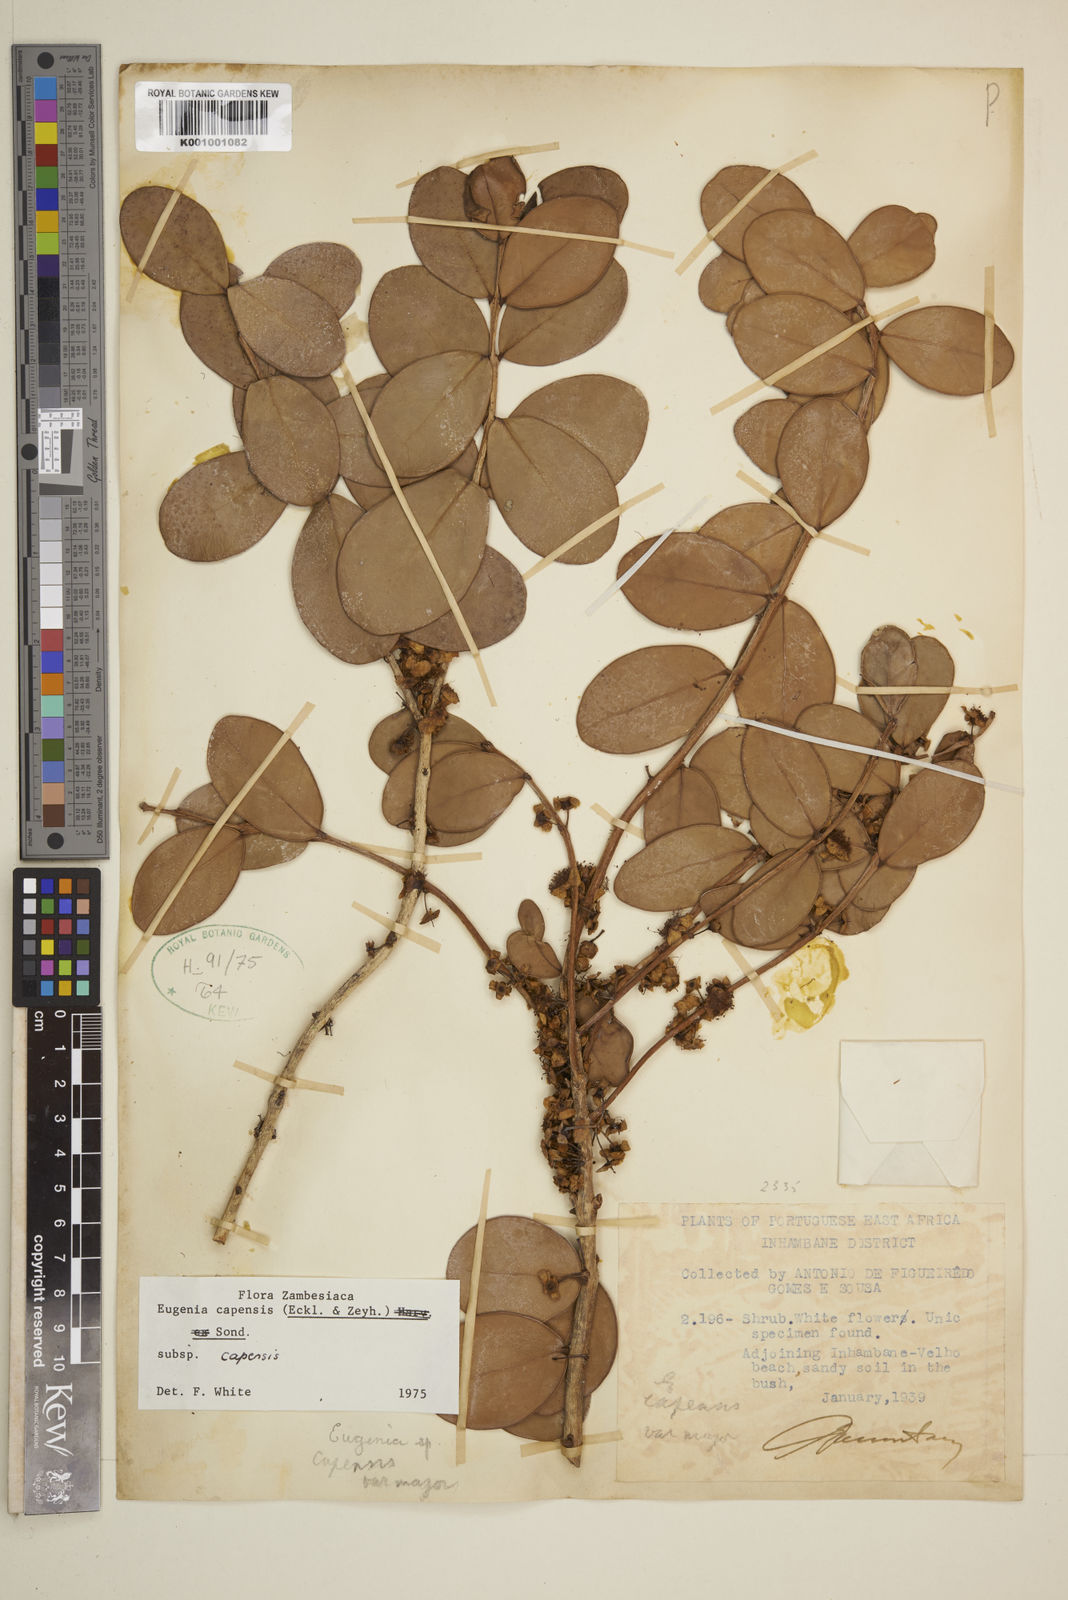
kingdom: Plantae
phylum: Tracheophyta
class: Magnoliopsida
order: Myrtales
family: Myrtaceae
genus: Eugenia
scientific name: Eugenia capensis
